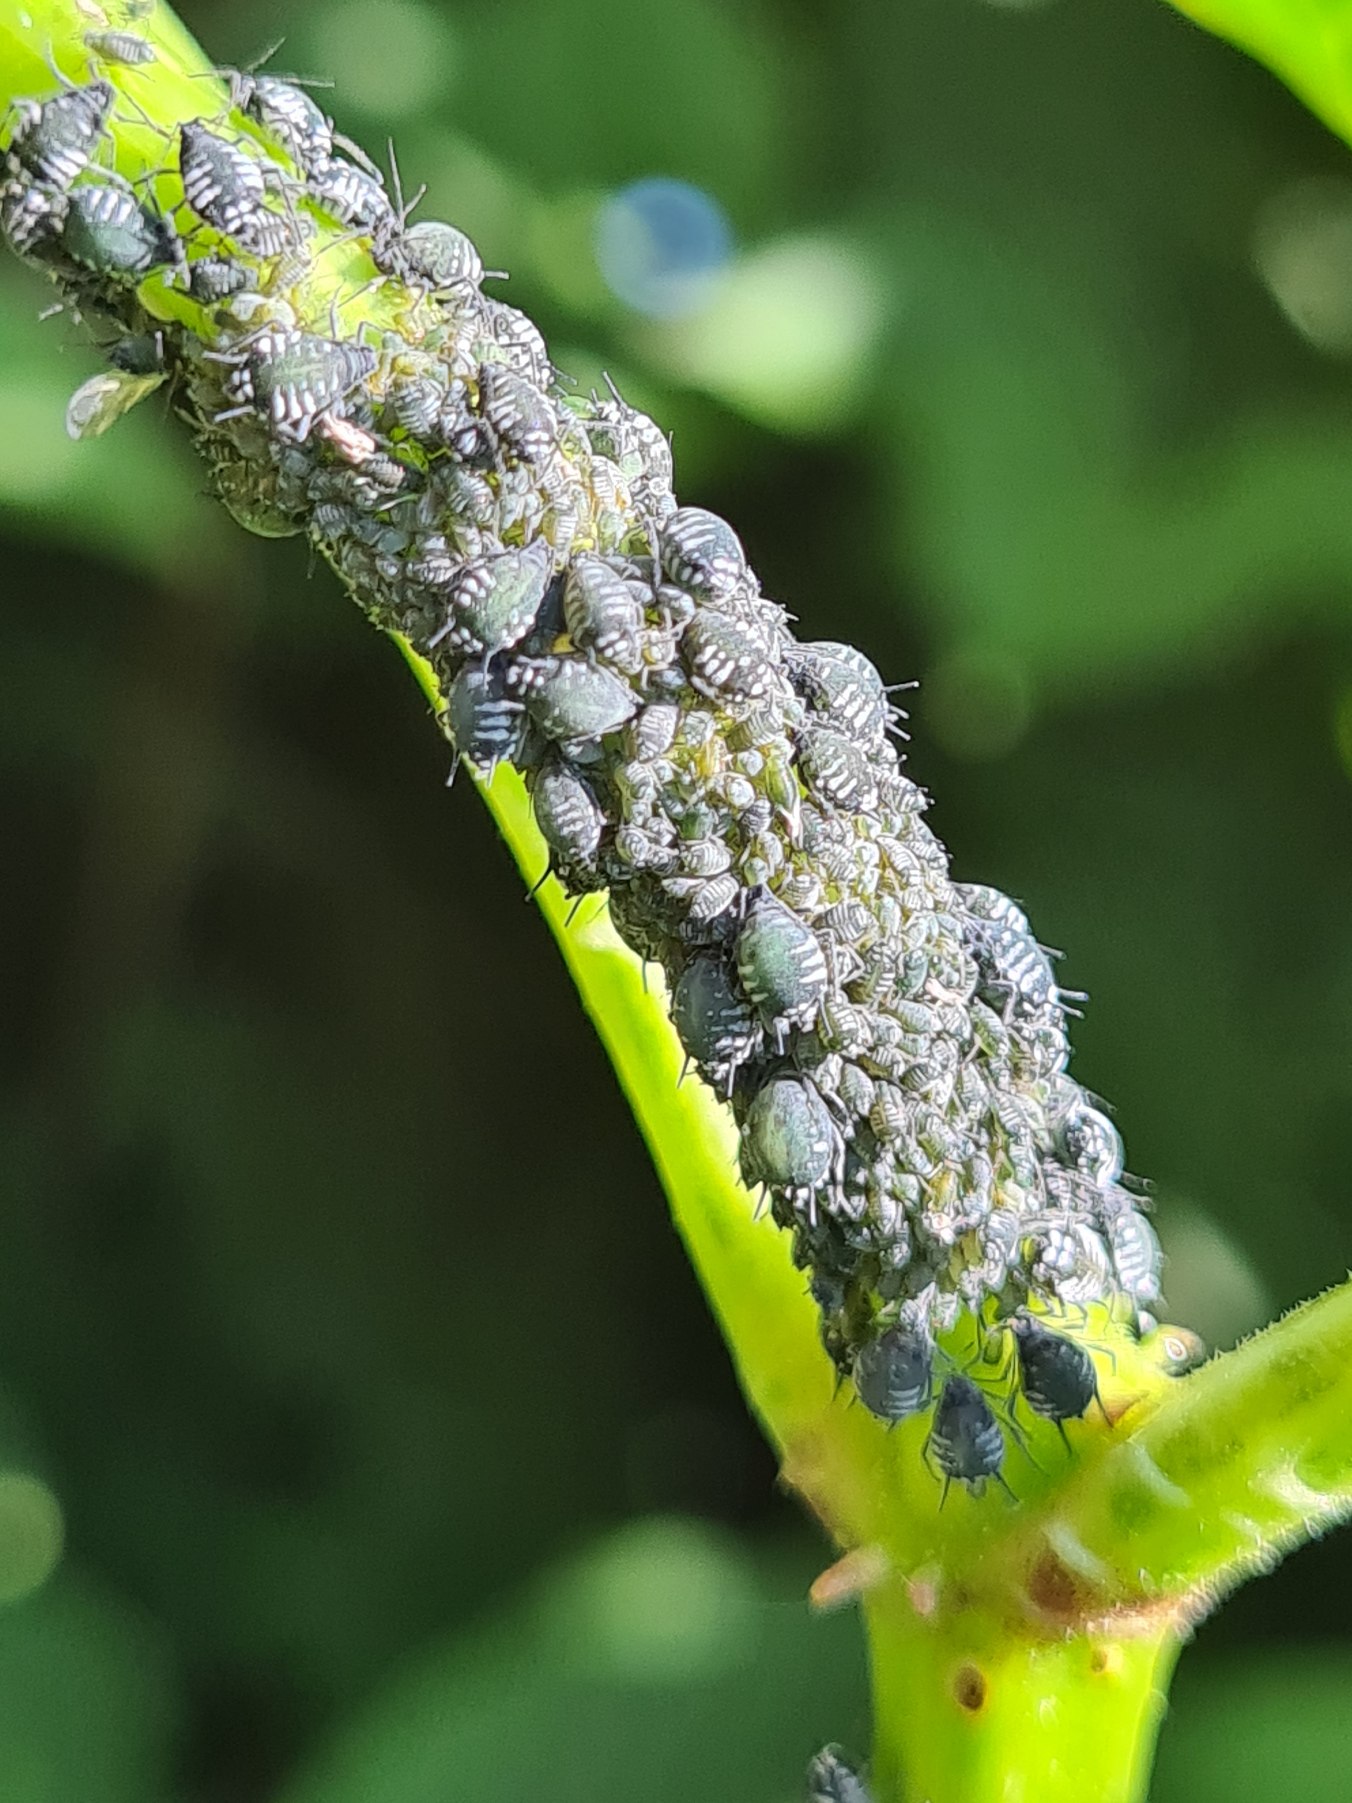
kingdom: Animalia
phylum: Arthropoda
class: Insecta
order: Hemiptera
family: Aphididae
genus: Aphis
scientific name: Aphis sambuci
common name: Hyldebladlus
